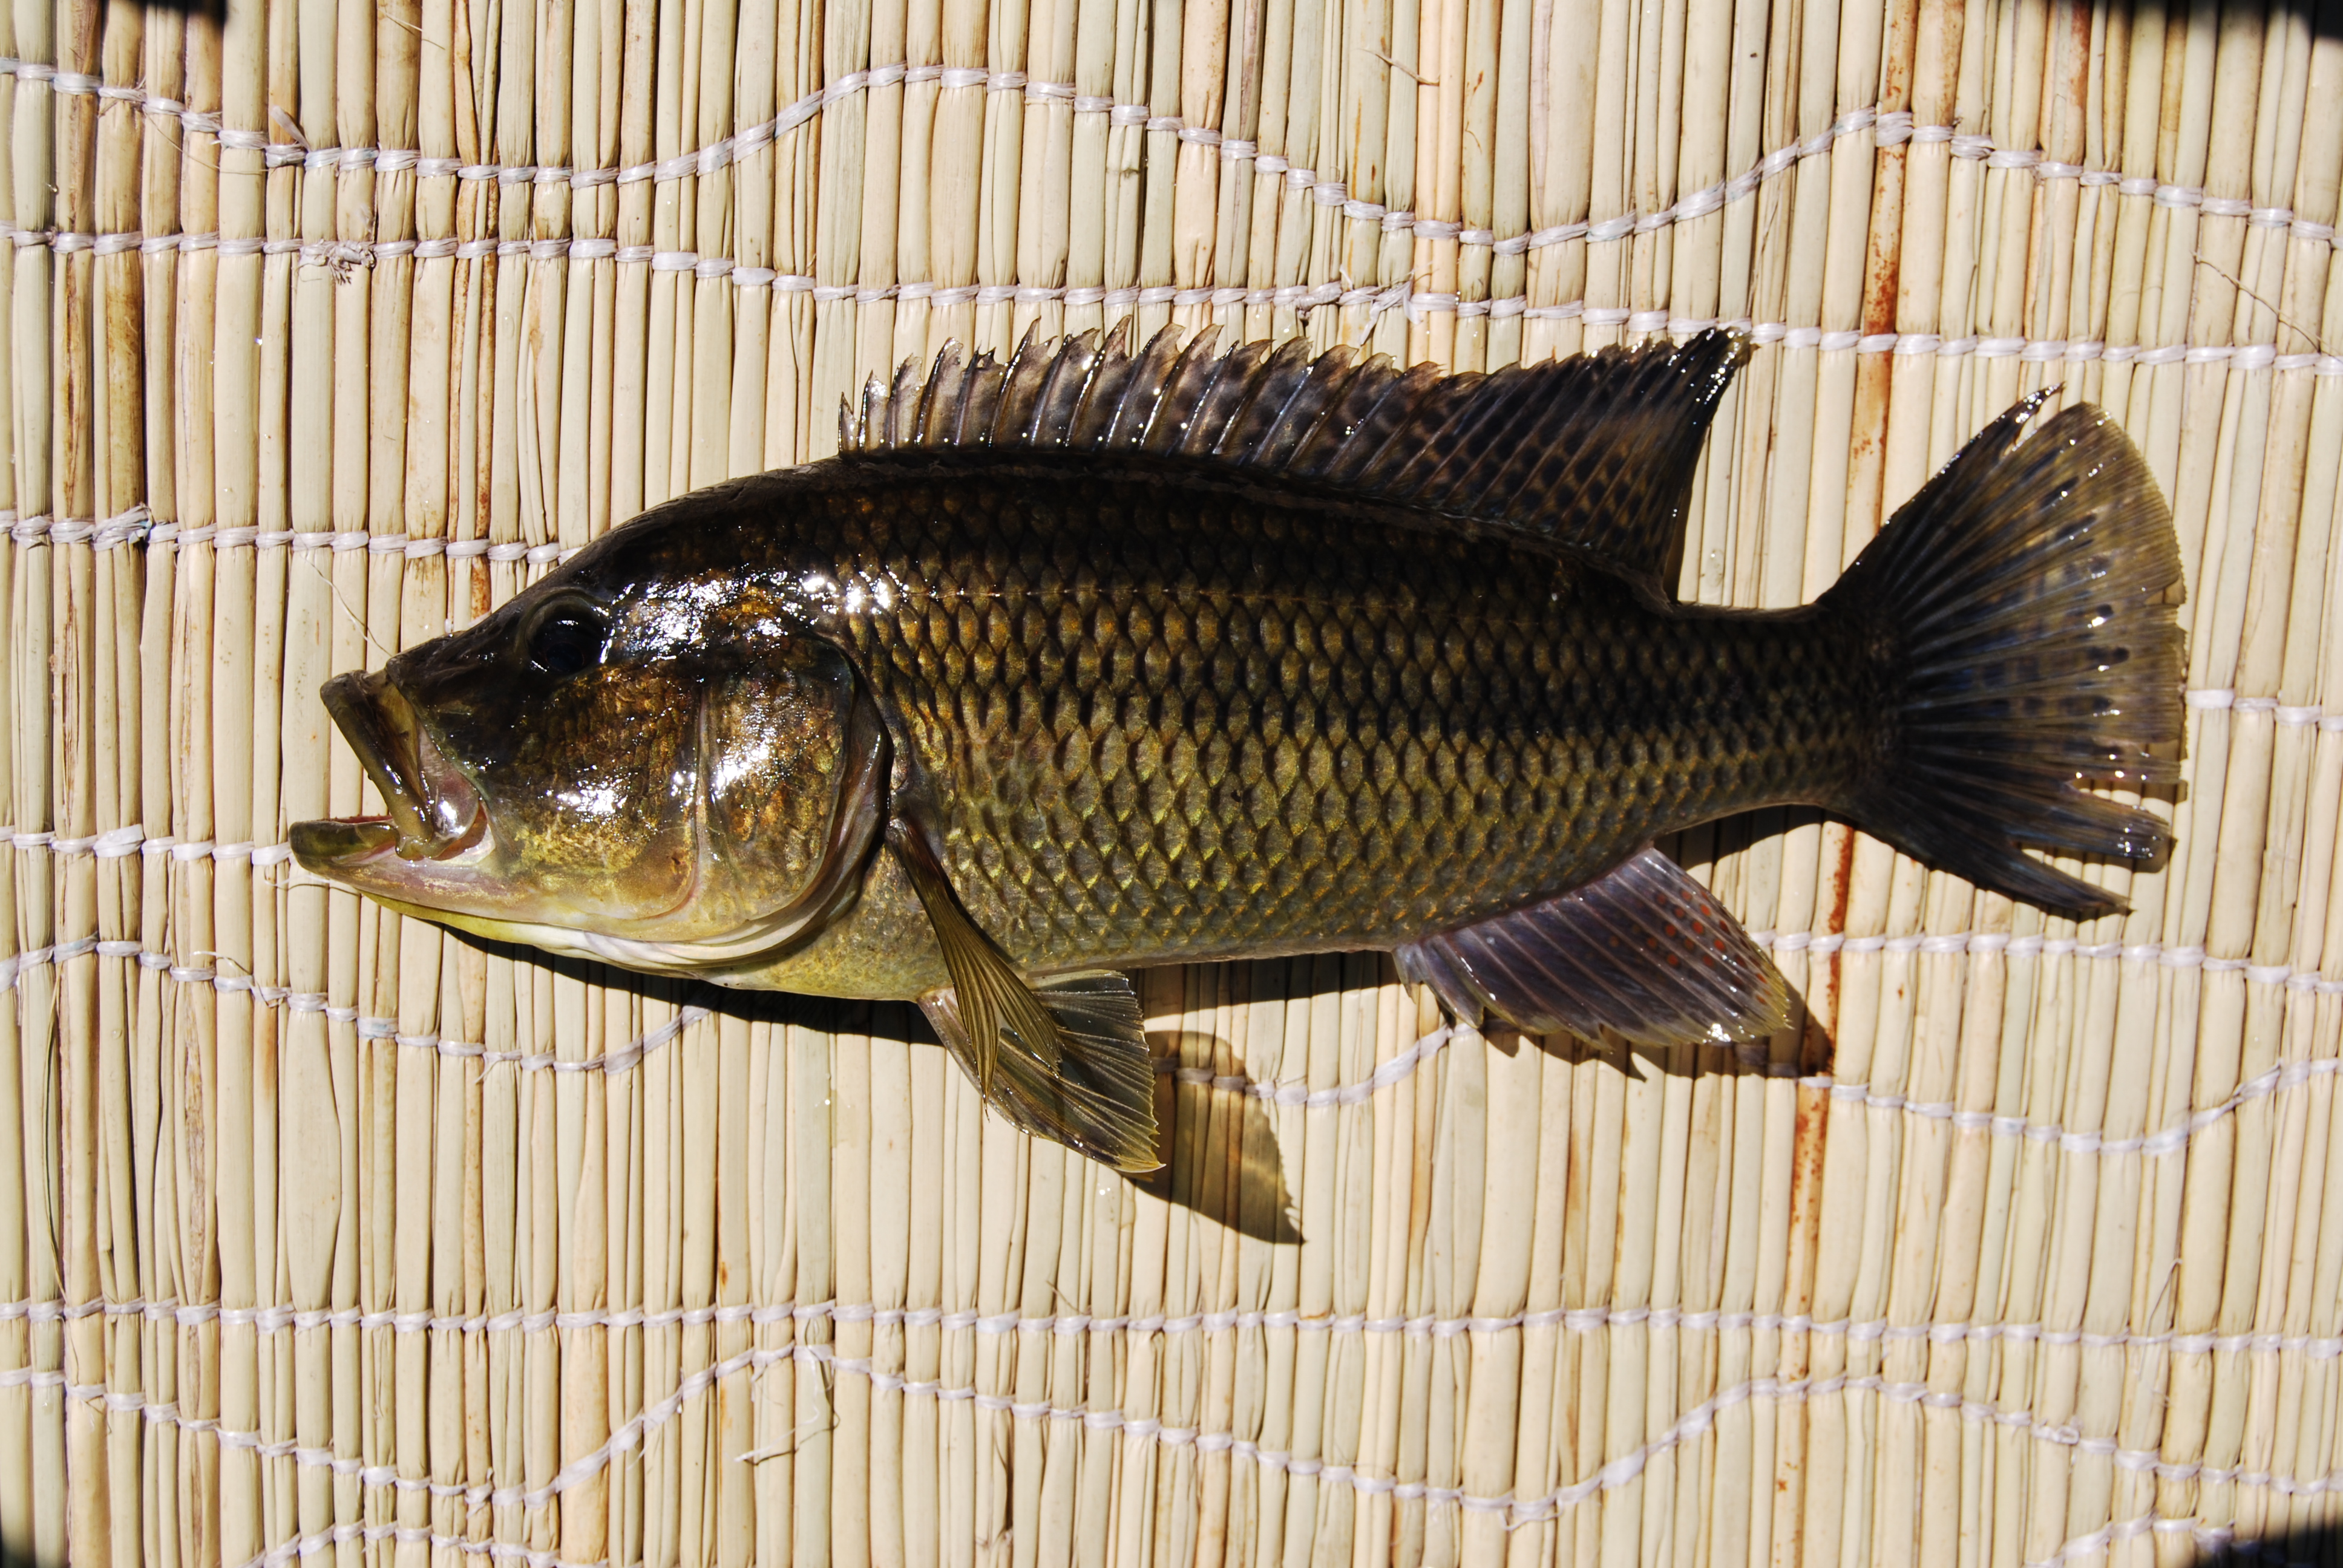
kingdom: Animalia
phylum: Chordata
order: Perciformes
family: Cichlidae
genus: Serranochromis
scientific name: Serranochromis angusticeps
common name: Thinface largemouth
